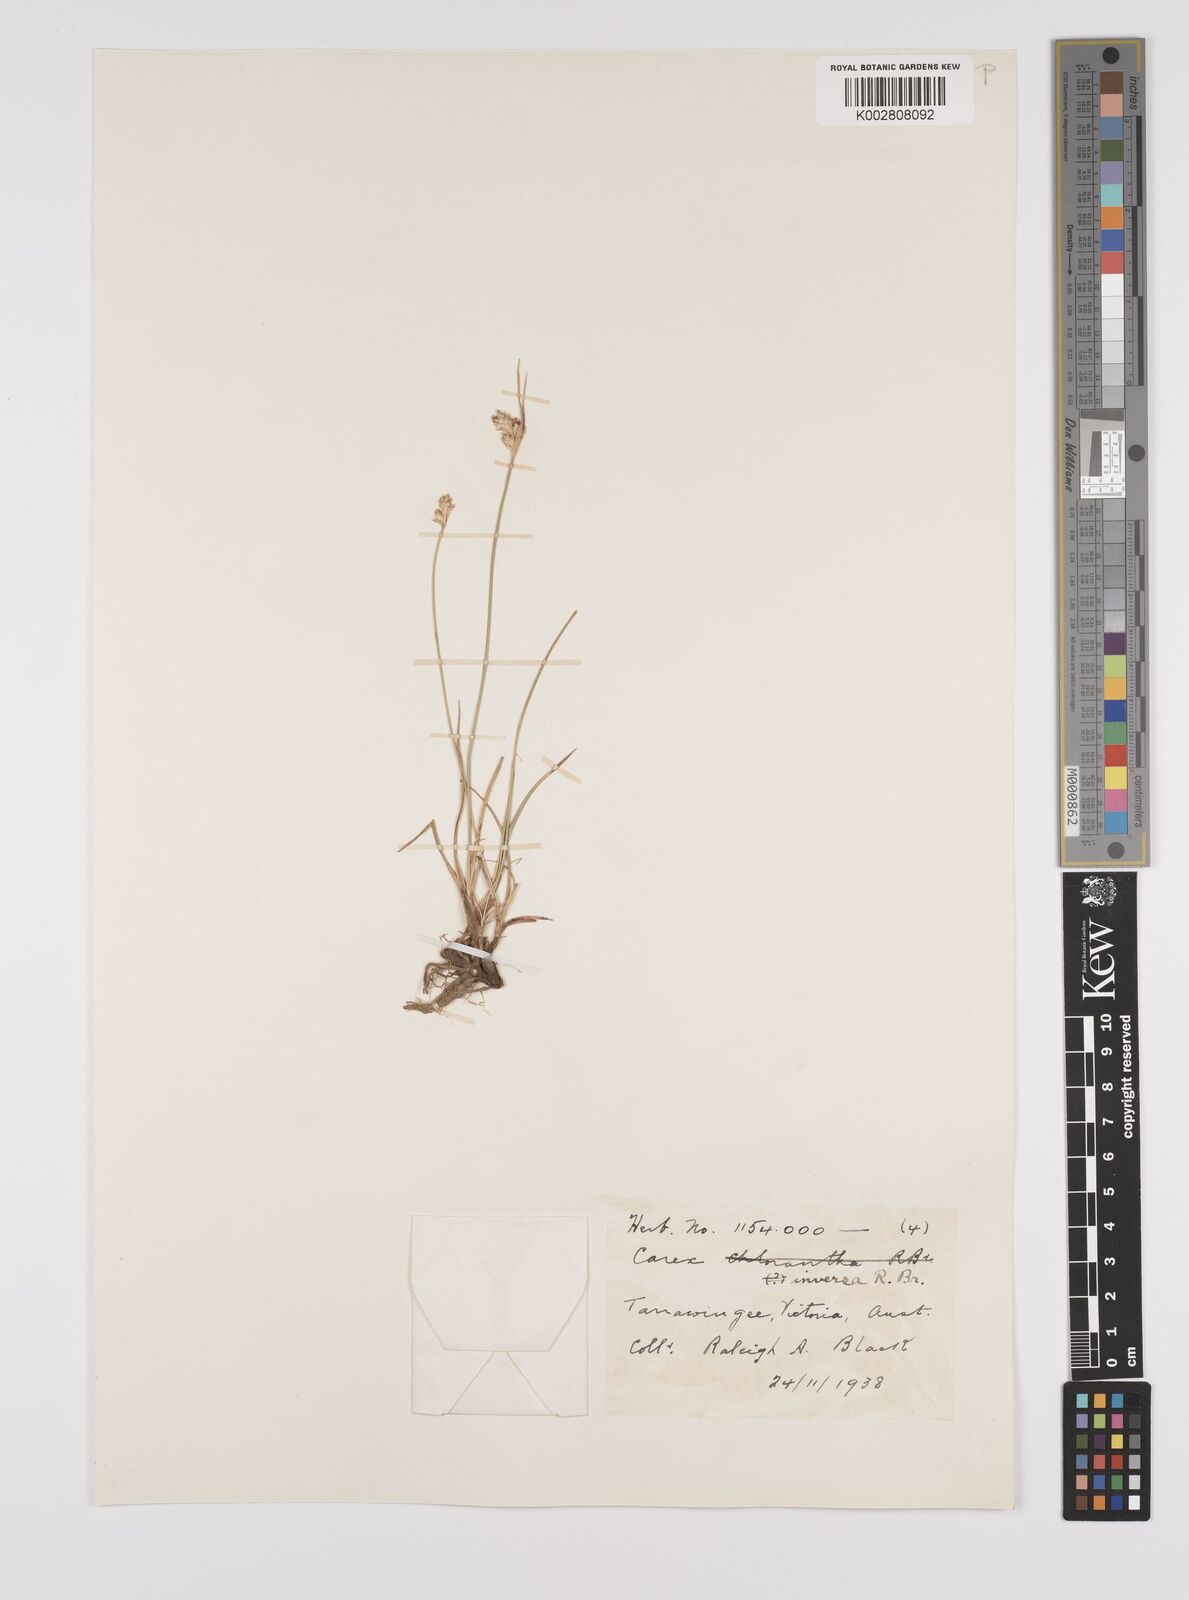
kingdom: Plantae
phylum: Tracheophyta
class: Liliopsida
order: Poales
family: Cyperaceae
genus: Carex
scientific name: Carex inversa
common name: Knob sedge
